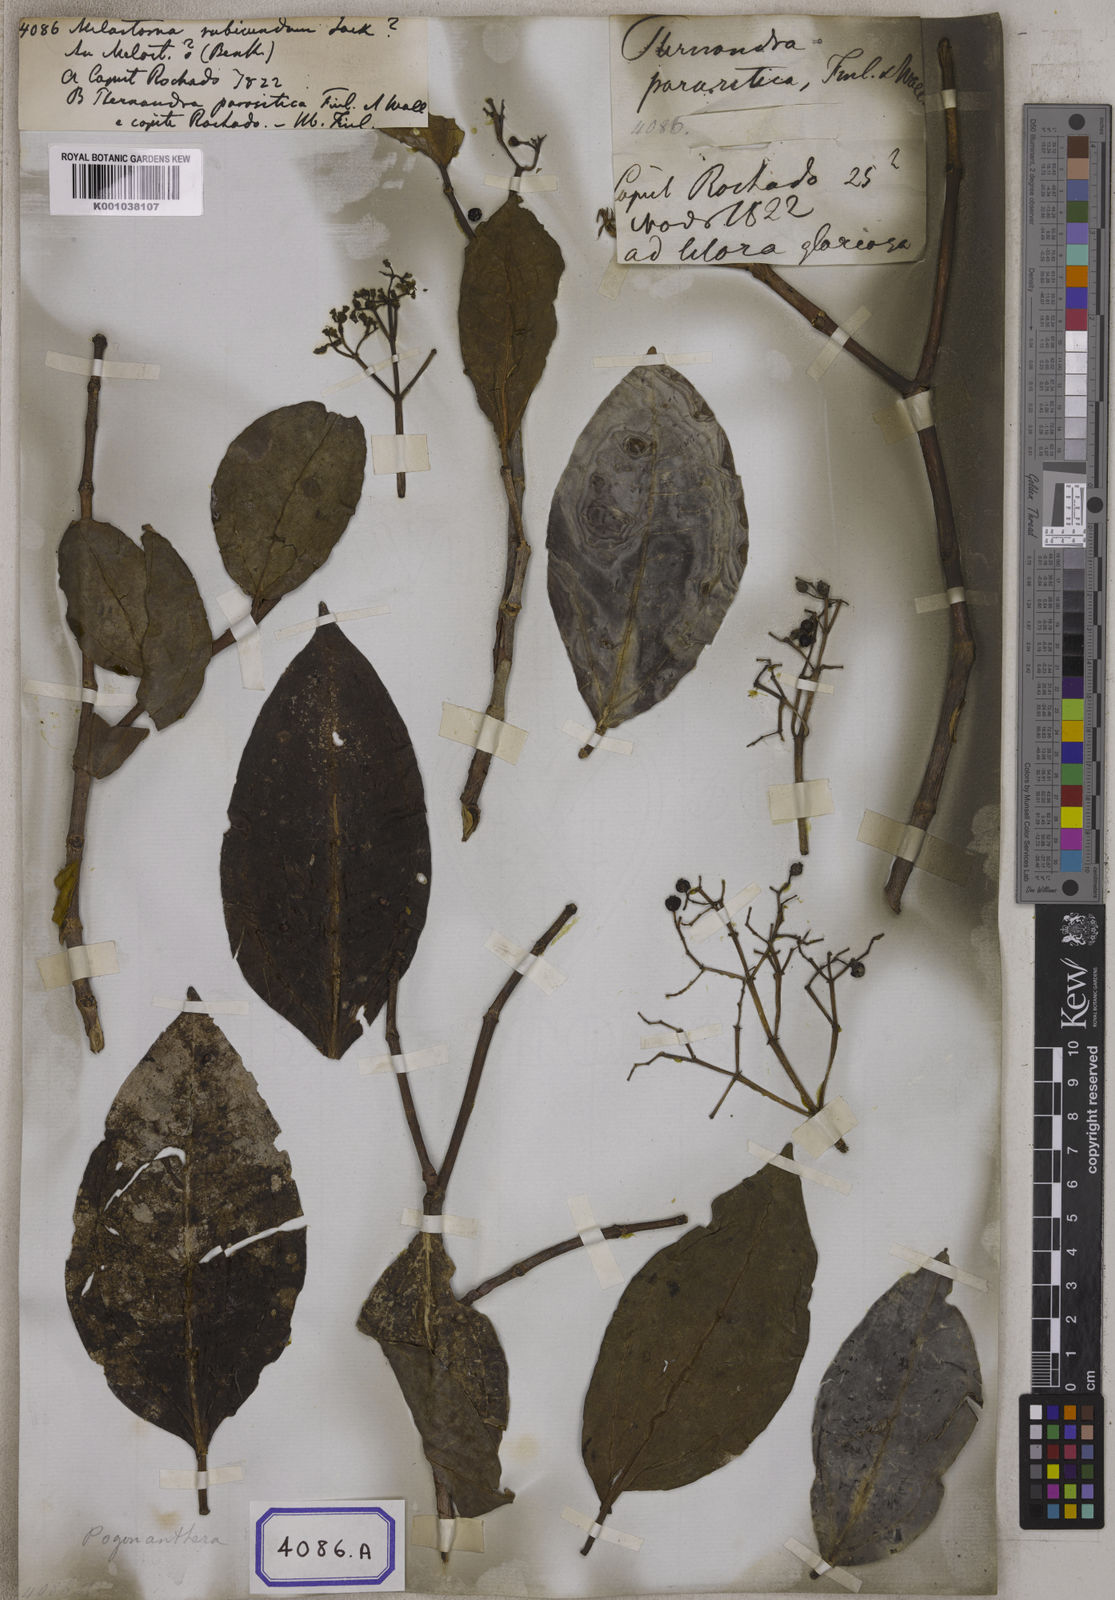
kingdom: Plantae
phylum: Tracheophyta
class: Magnoliopsida
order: Myrtales
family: Melastomataceae
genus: Pachycentria
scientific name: Pachycentria pulverulenta
